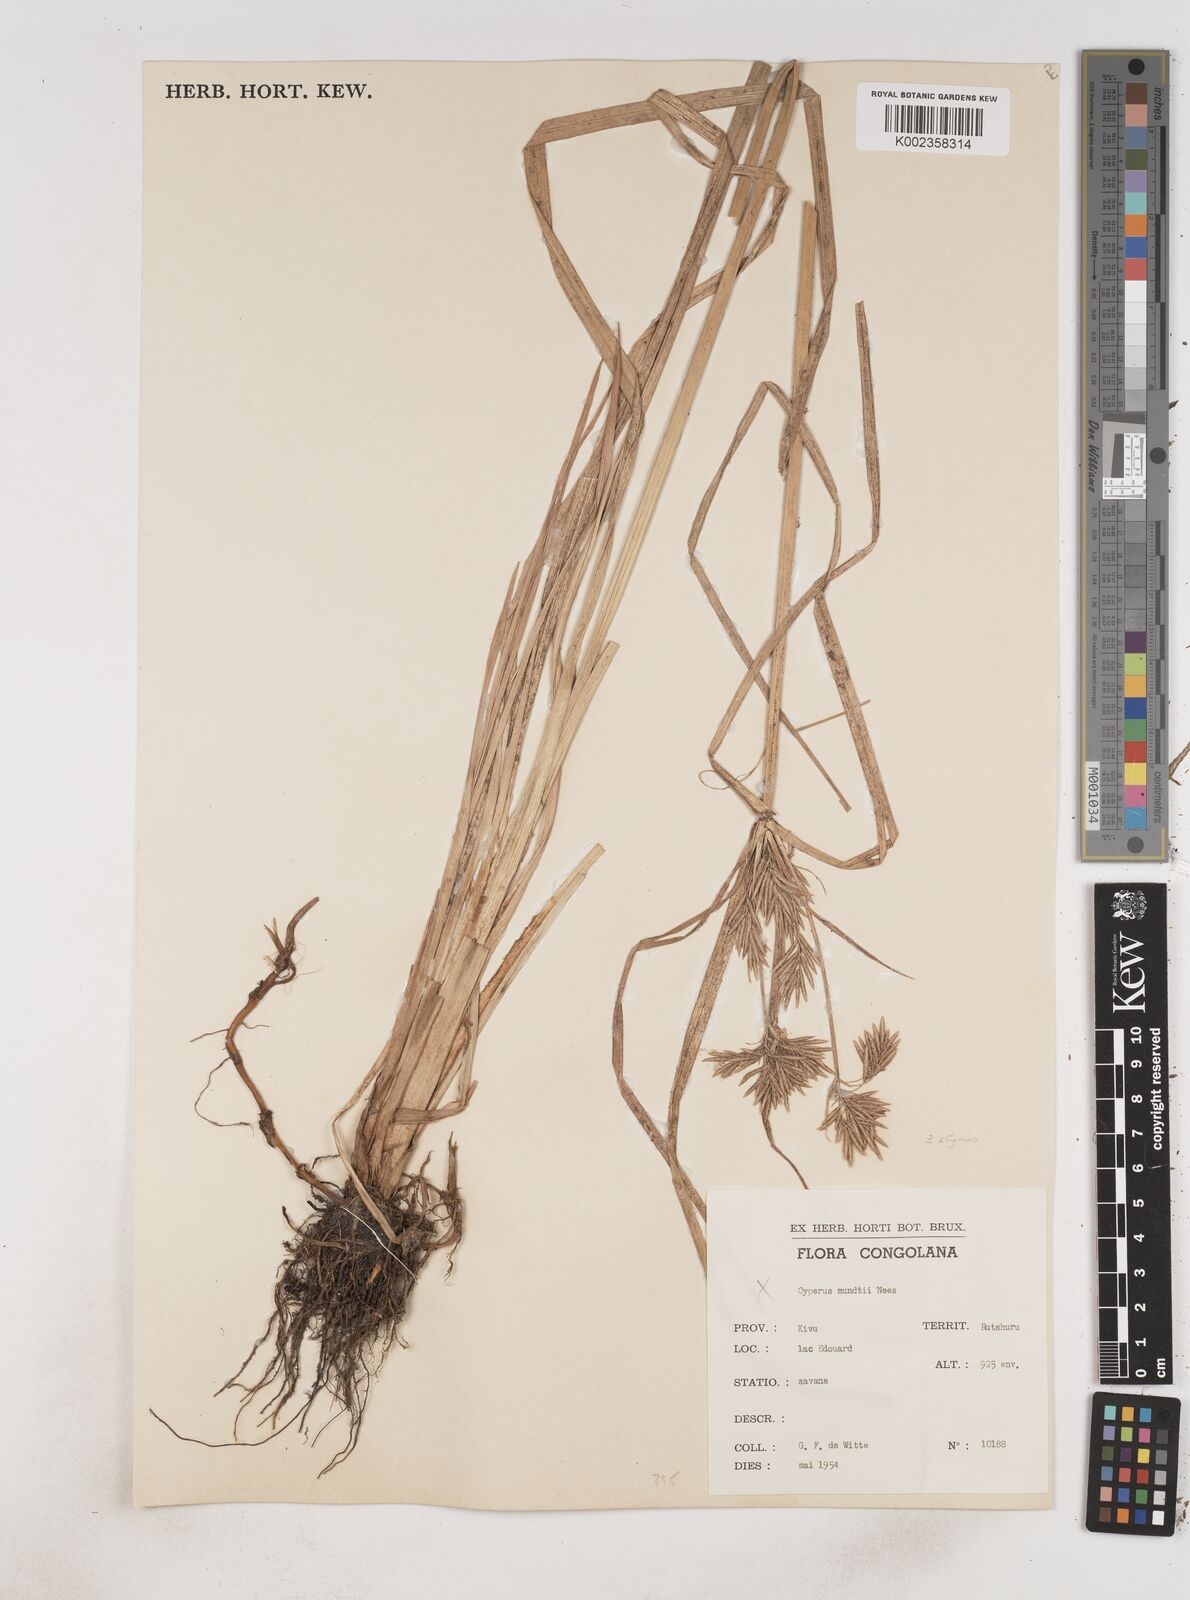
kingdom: Plantae
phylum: Tracheophyta
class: Liliopsida
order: Poales
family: Cyperaceae
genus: Cyperus
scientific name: Cyperus rotundus
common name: Nutgrass
